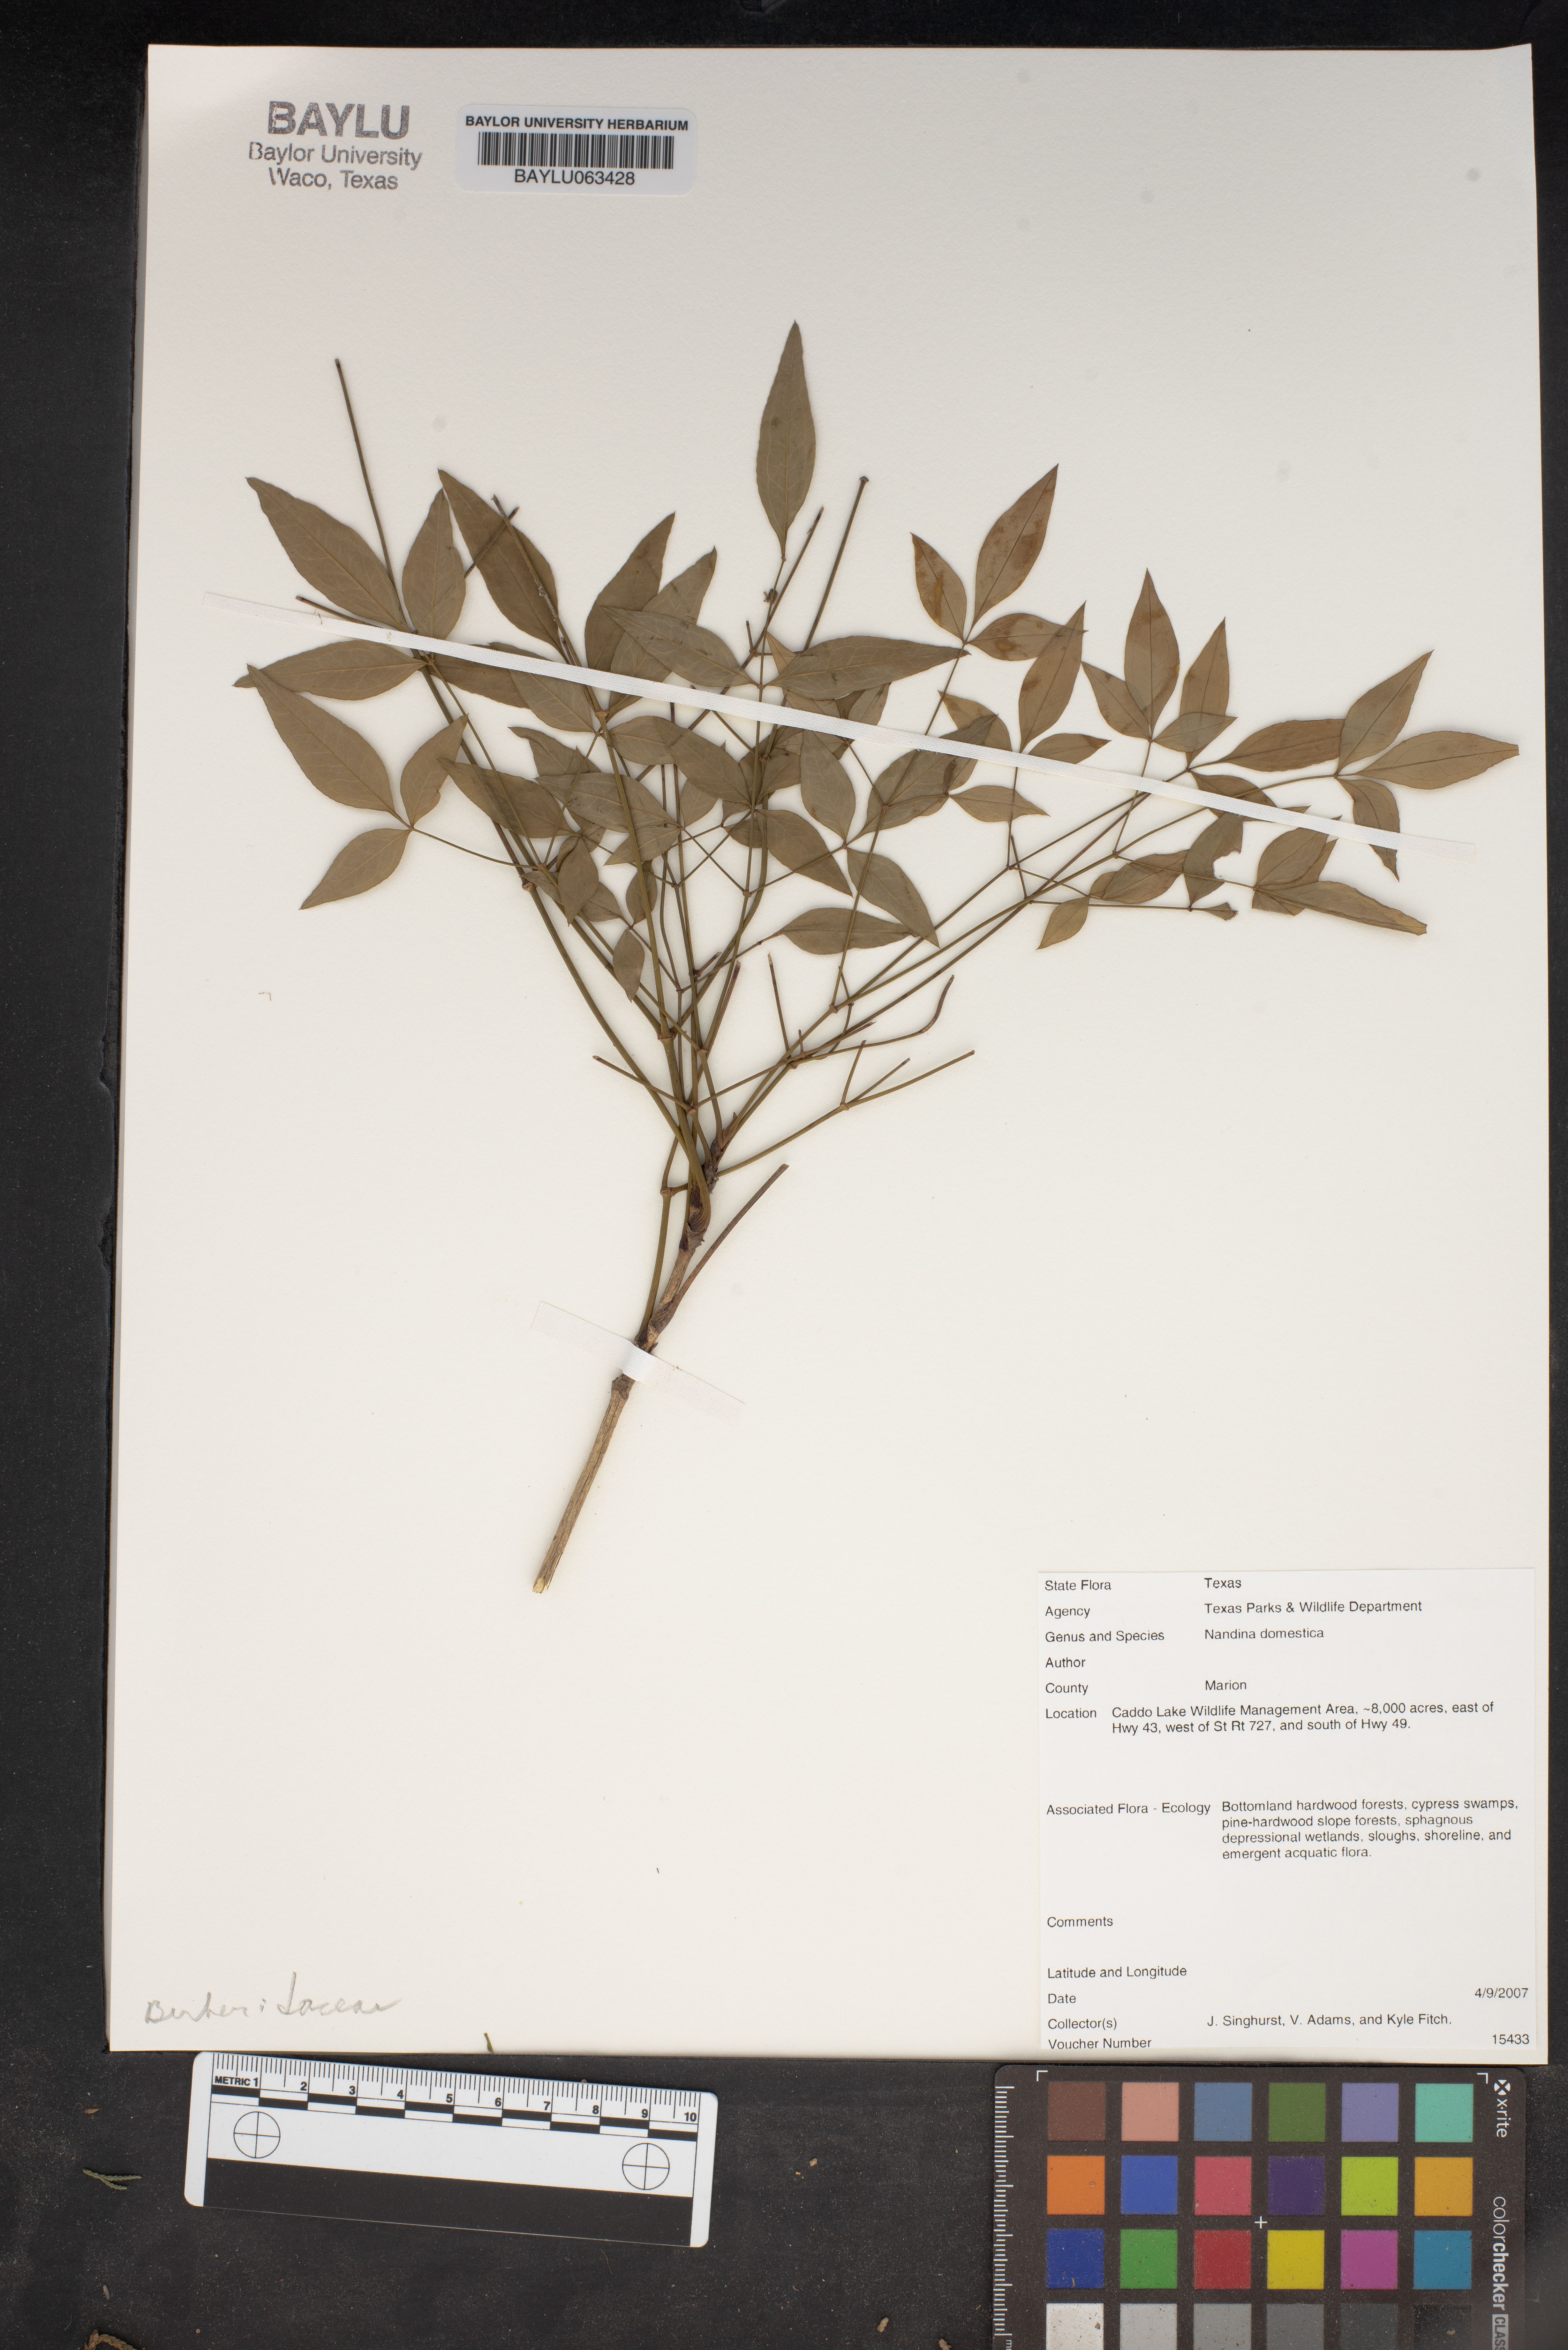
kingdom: Plantae
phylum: Tracheophyta
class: Magnoliopsida
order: Ranunculales
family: Berberidaceae
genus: Nandina
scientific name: Nandina domestica
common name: Sacred bamboo
